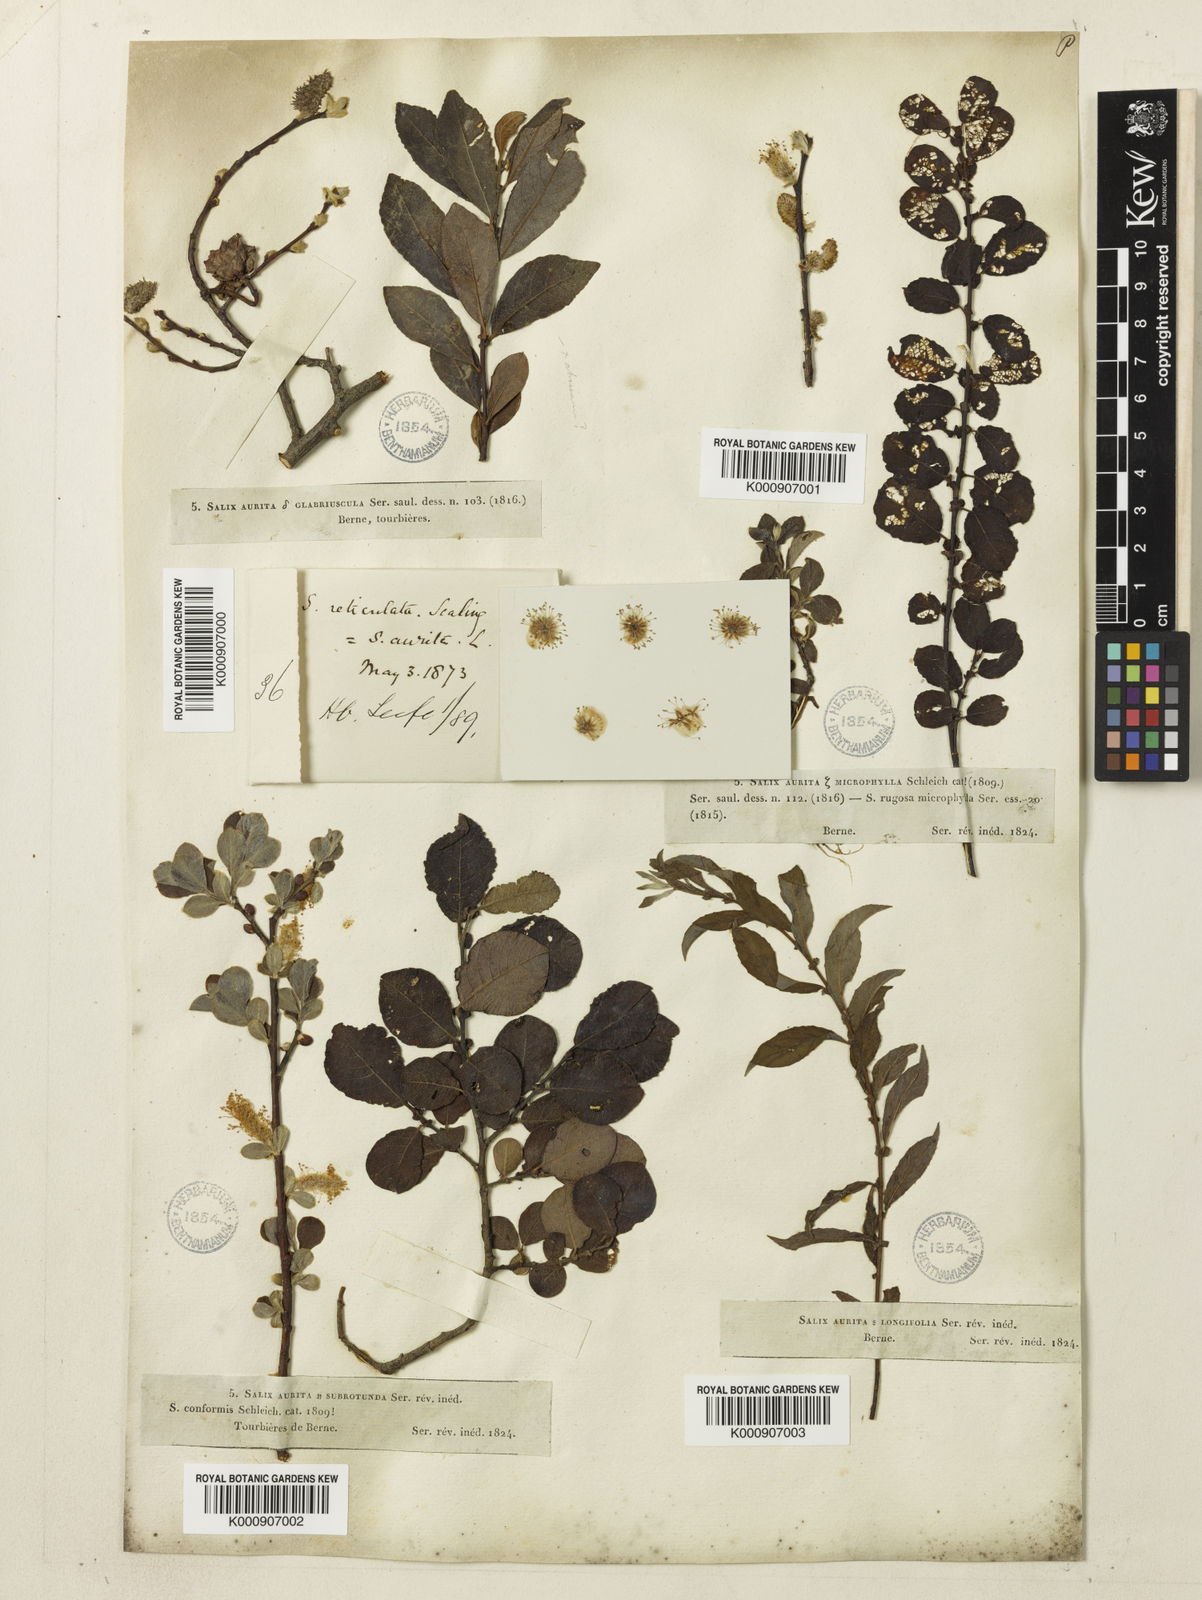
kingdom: Plantae
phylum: Tracheophyta
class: Magnoliopsida
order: Malpighiales
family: Salicaceae
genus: Salix
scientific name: Salix aurita
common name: Eared willow
